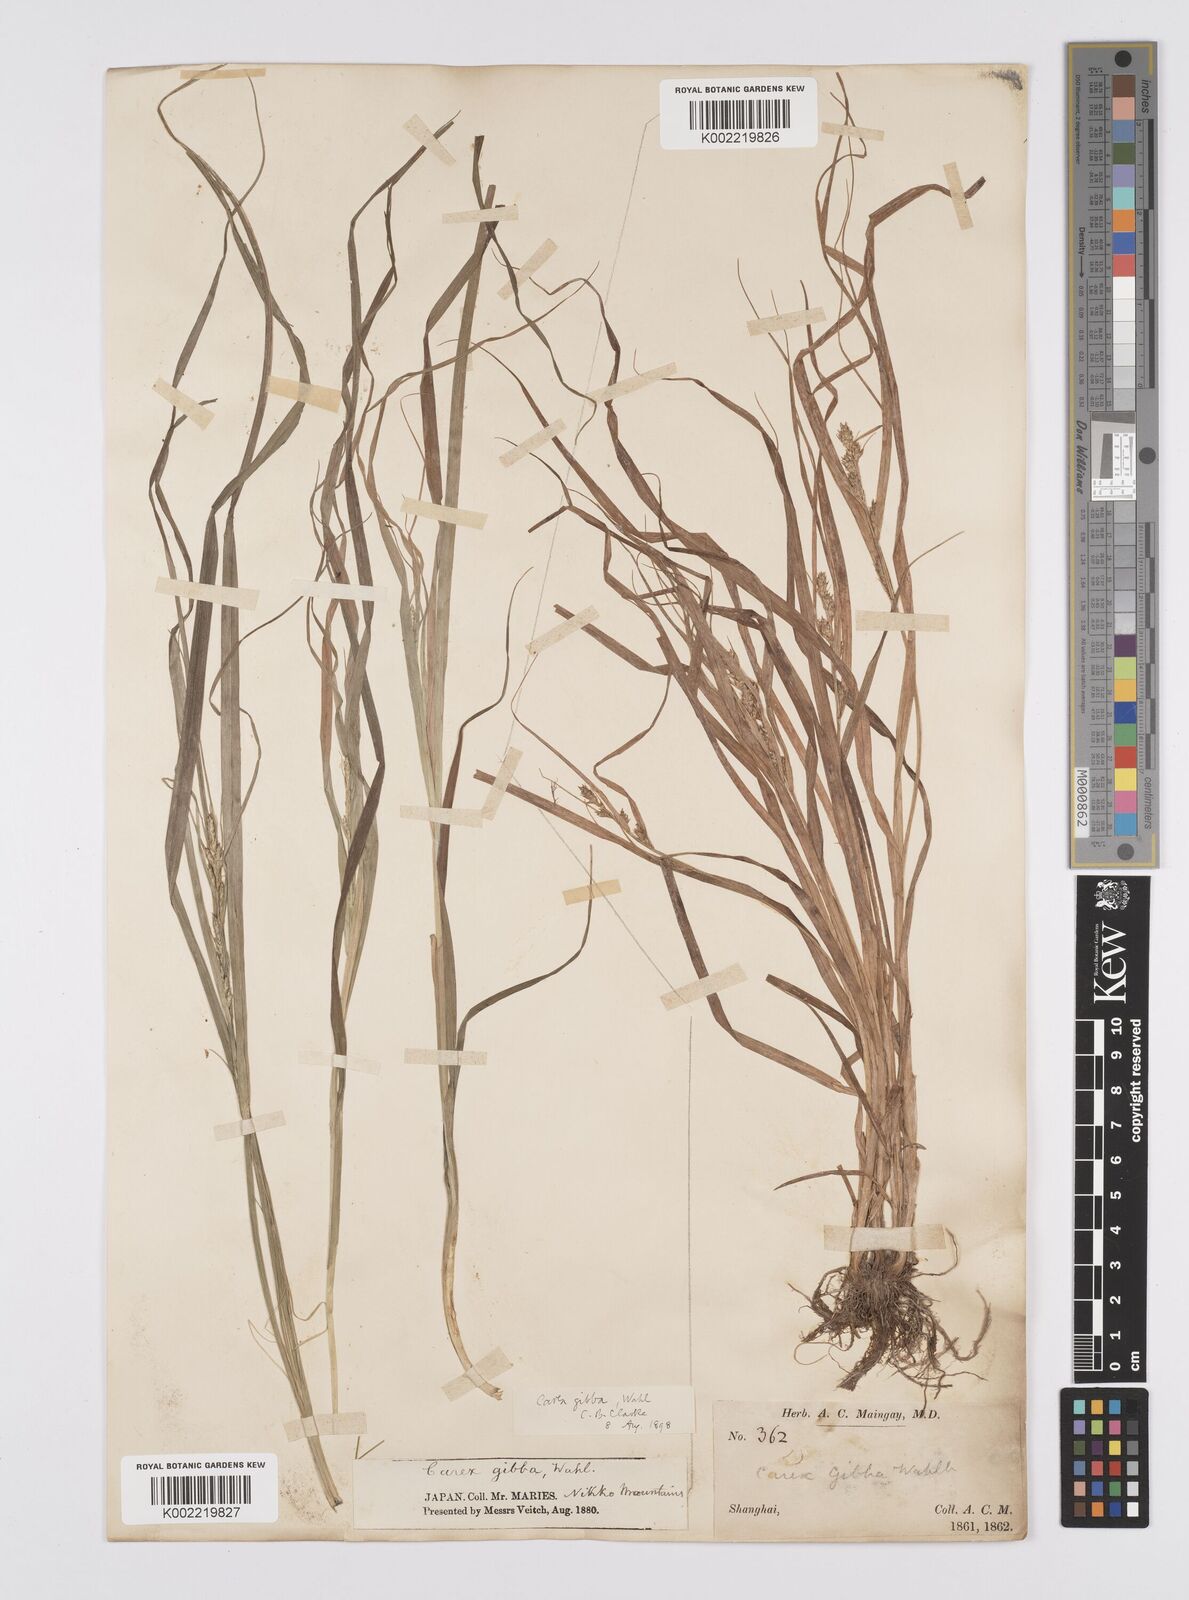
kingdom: Plantae
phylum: Tracheophyta
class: Liliopsida
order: Poales
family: Cyperaceae
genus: Carex
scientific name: Carex gibba
